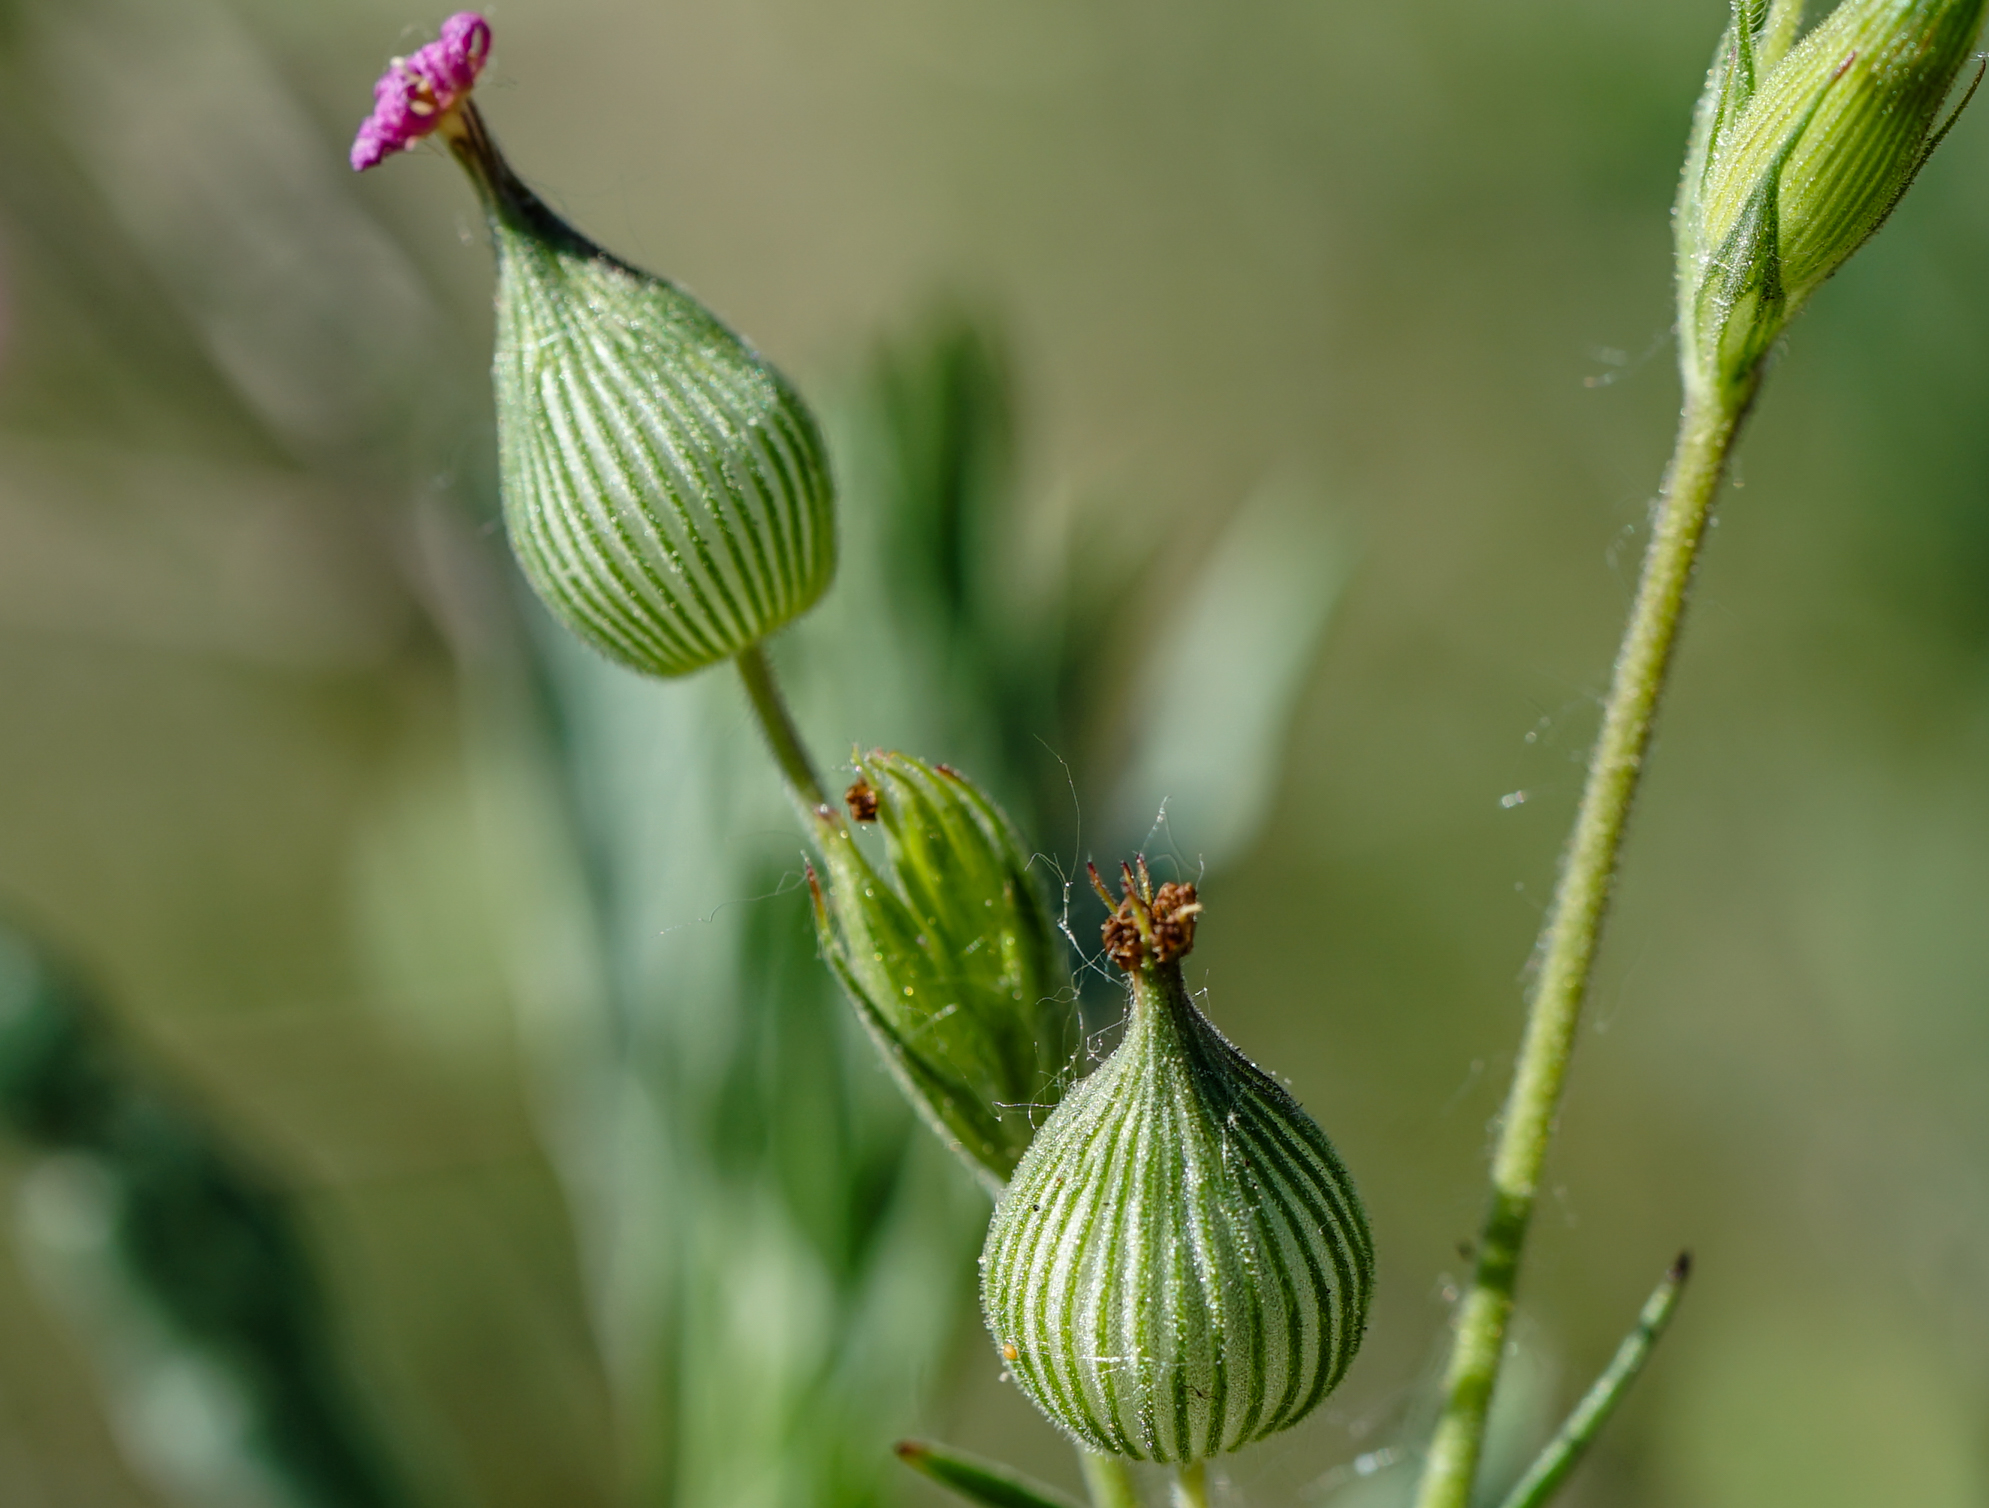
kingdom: Plantae
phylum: Tracheophyta
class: Magnoliopsida
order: Caryophyllales
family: Caryophyllaceae
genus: Silene
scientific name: Silene conica
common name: Sand catchfly
